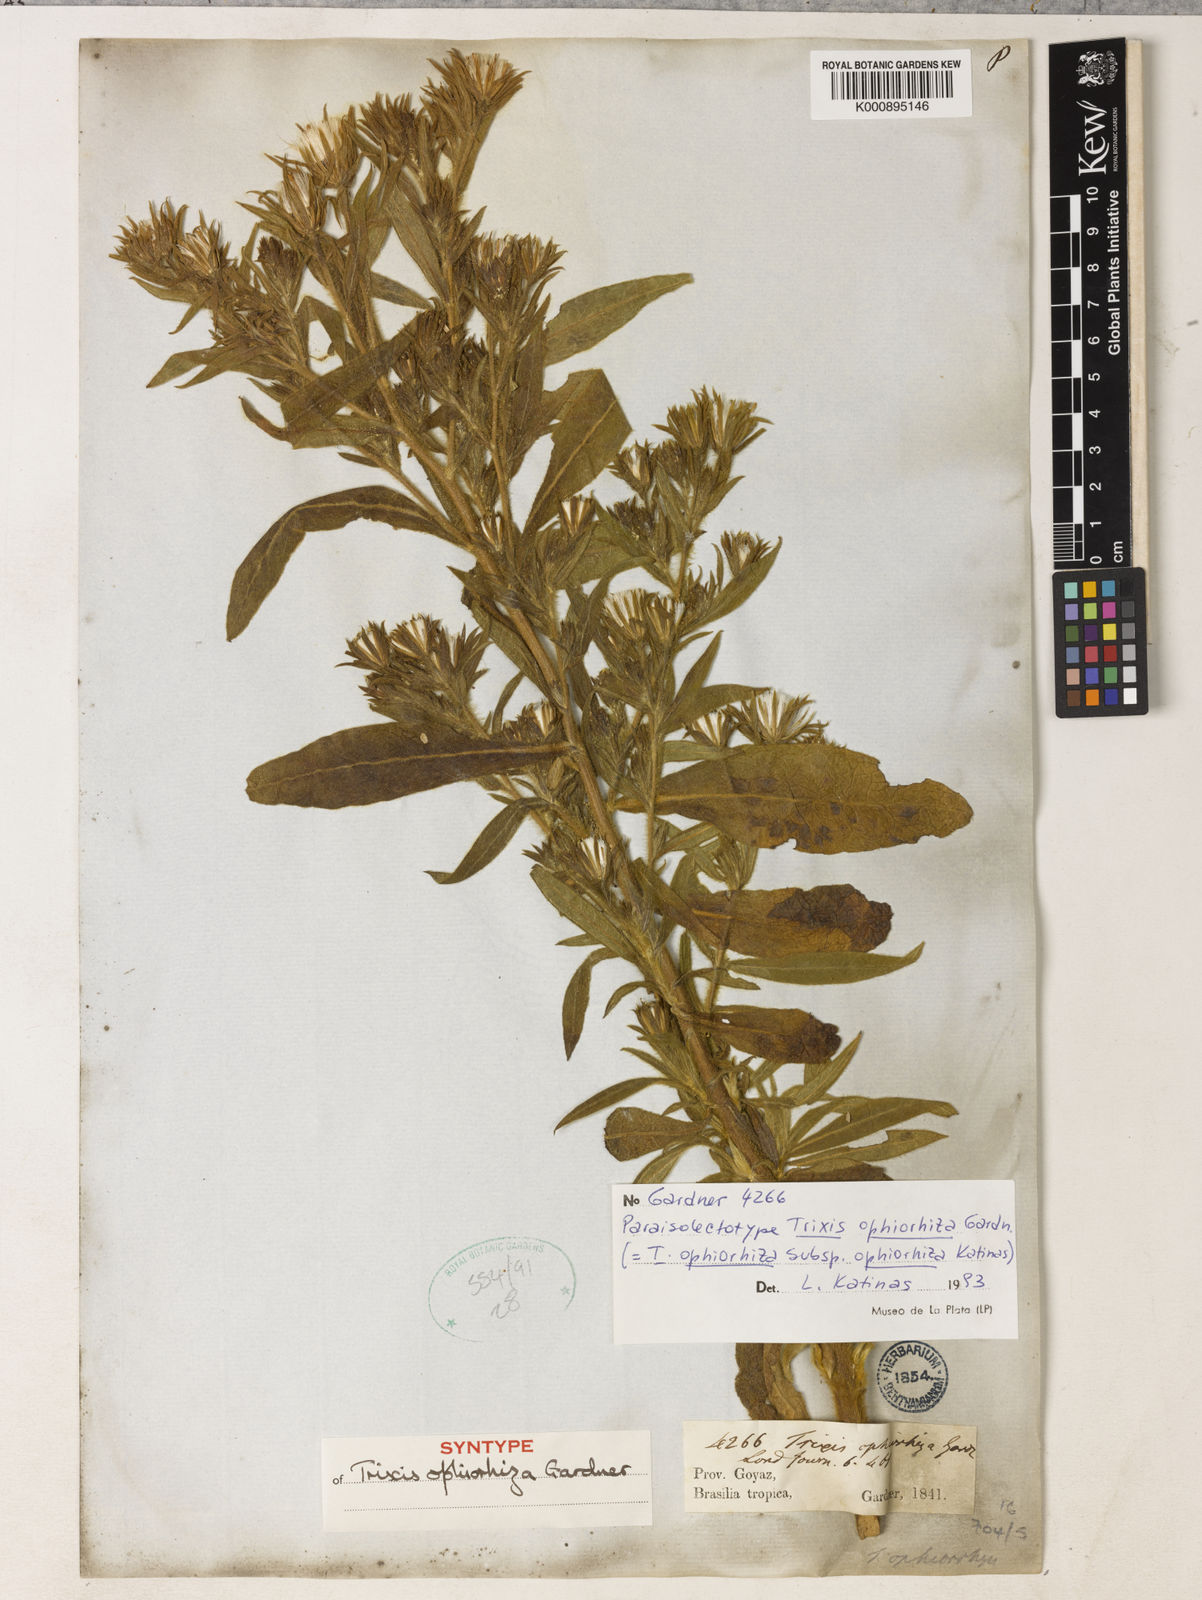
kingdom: Plantae
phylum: Tracheophyta
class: Magnoliopsida
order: Asterales
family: Asteraceae
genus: Trixis
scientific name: Trixis ophiorhiza
